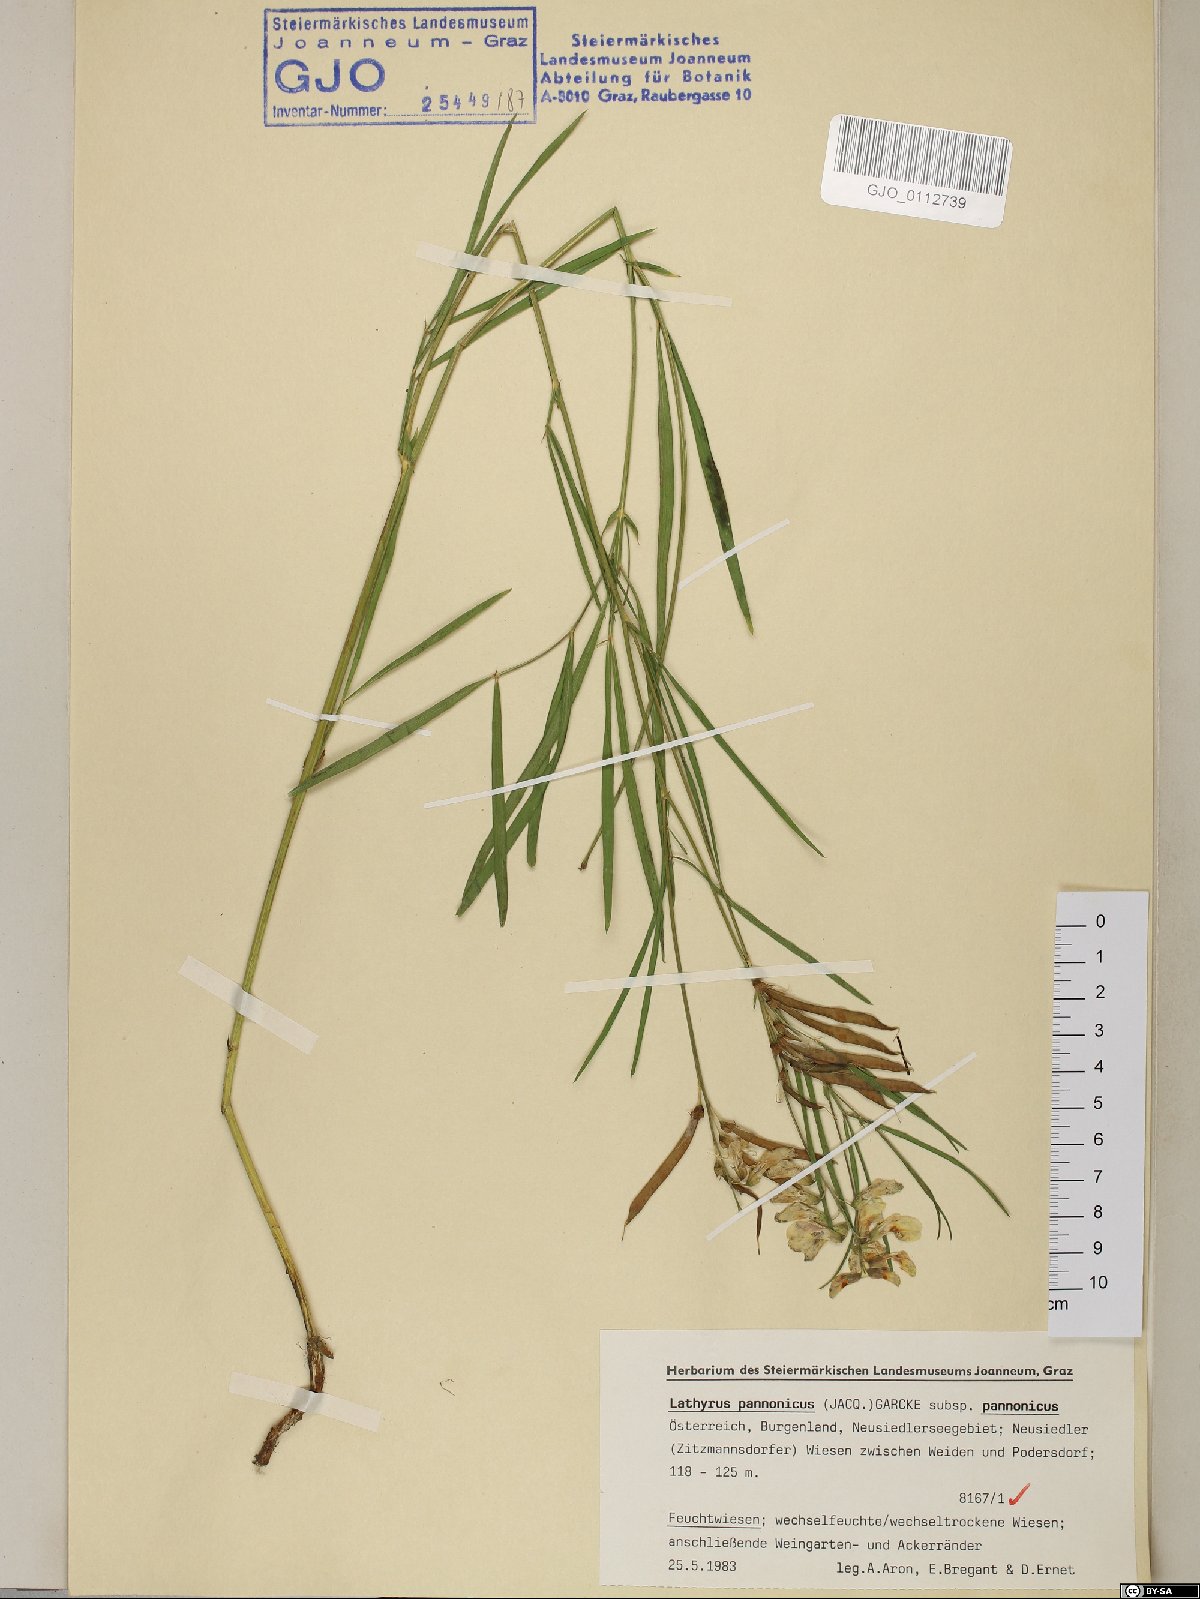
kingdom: Plantae
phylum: Tracheophyta
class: Magnoliopsida
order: Fabales
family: Fabaceae
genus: Lathyrus
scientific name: Lathyrus pannonicus
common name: Pea
